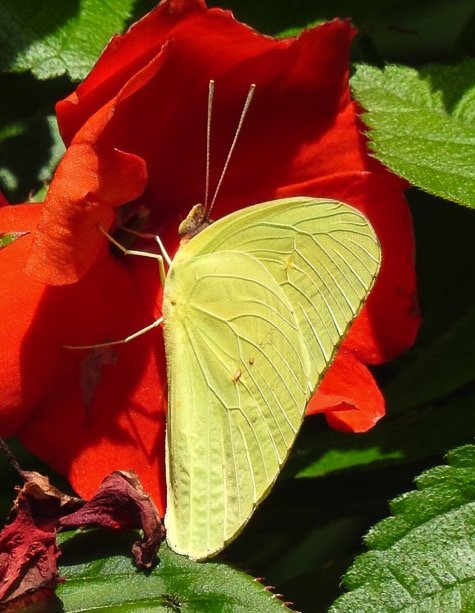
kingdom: Animalia
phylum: Arthropoda
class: Insecta
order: Lepidoptera
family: Pieridae
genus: Phoebis
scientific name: Phoebis sennae
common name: Cloudless Sulphur
